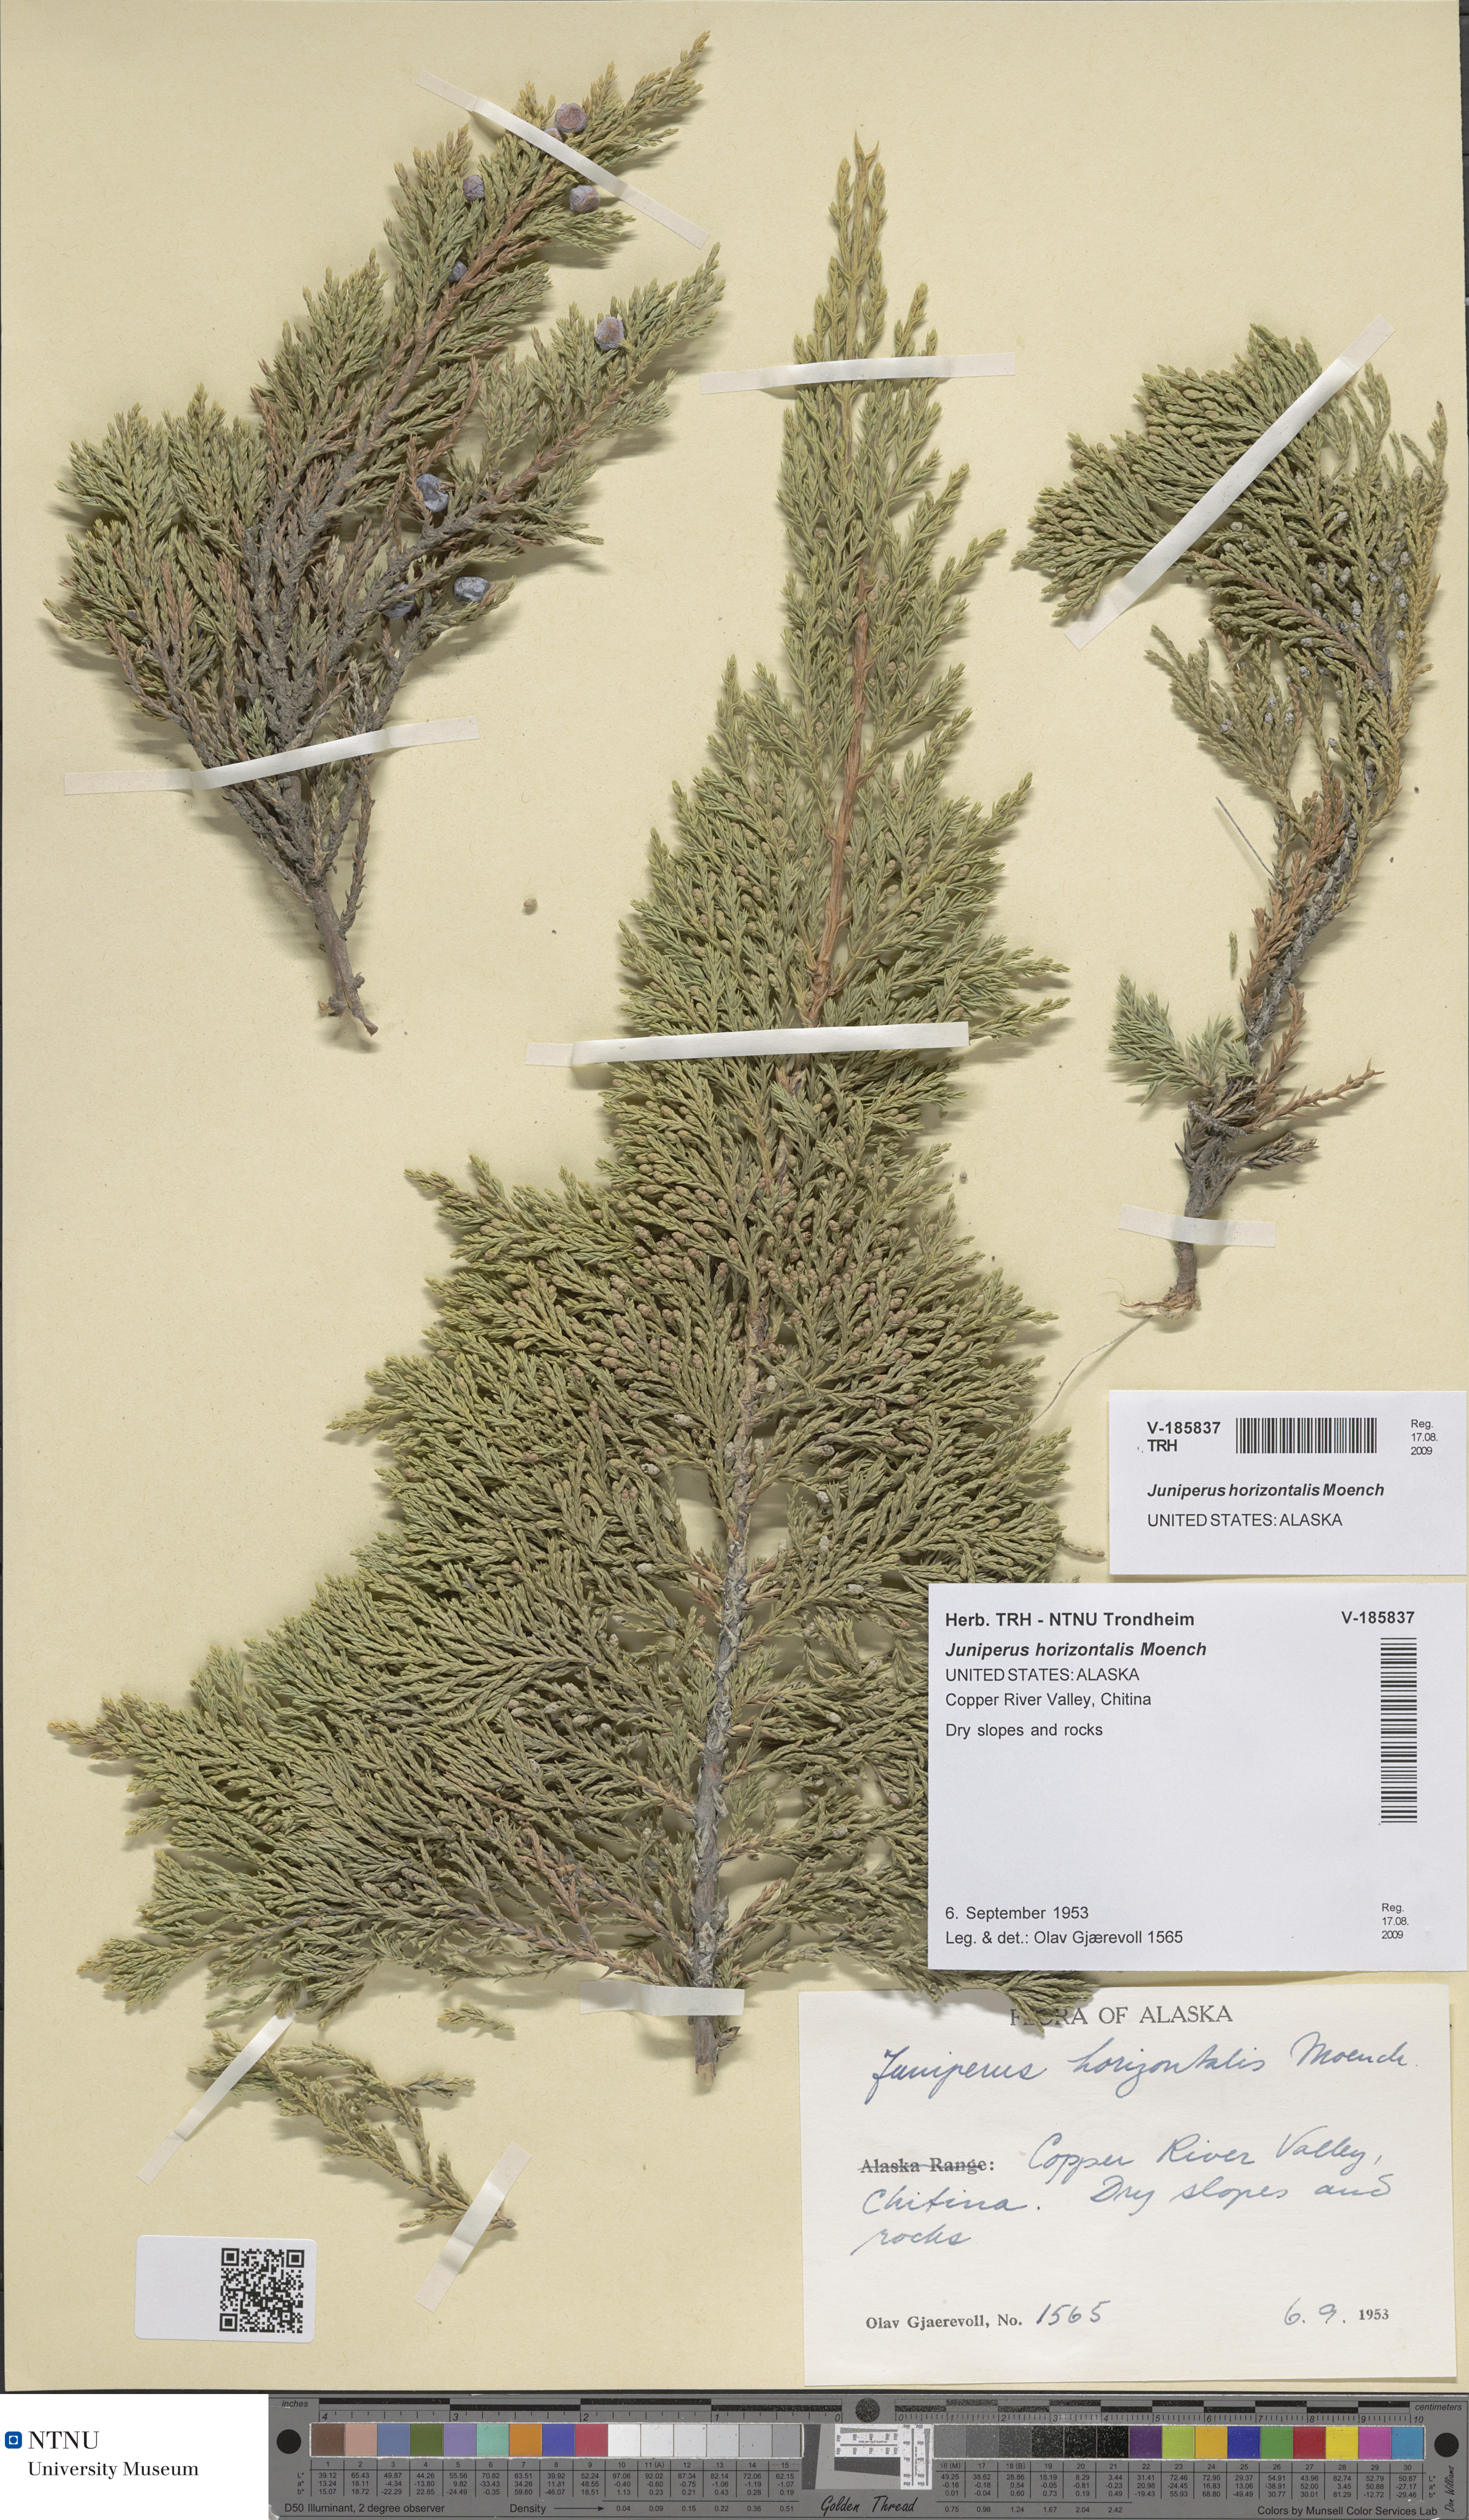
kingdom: Plantae
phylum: Tracheophyta
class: Pinopsida
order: Pinales
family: Cupressaceae
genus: Juniperus
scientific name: Juniperus horizontalis
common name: Creeping juniper
